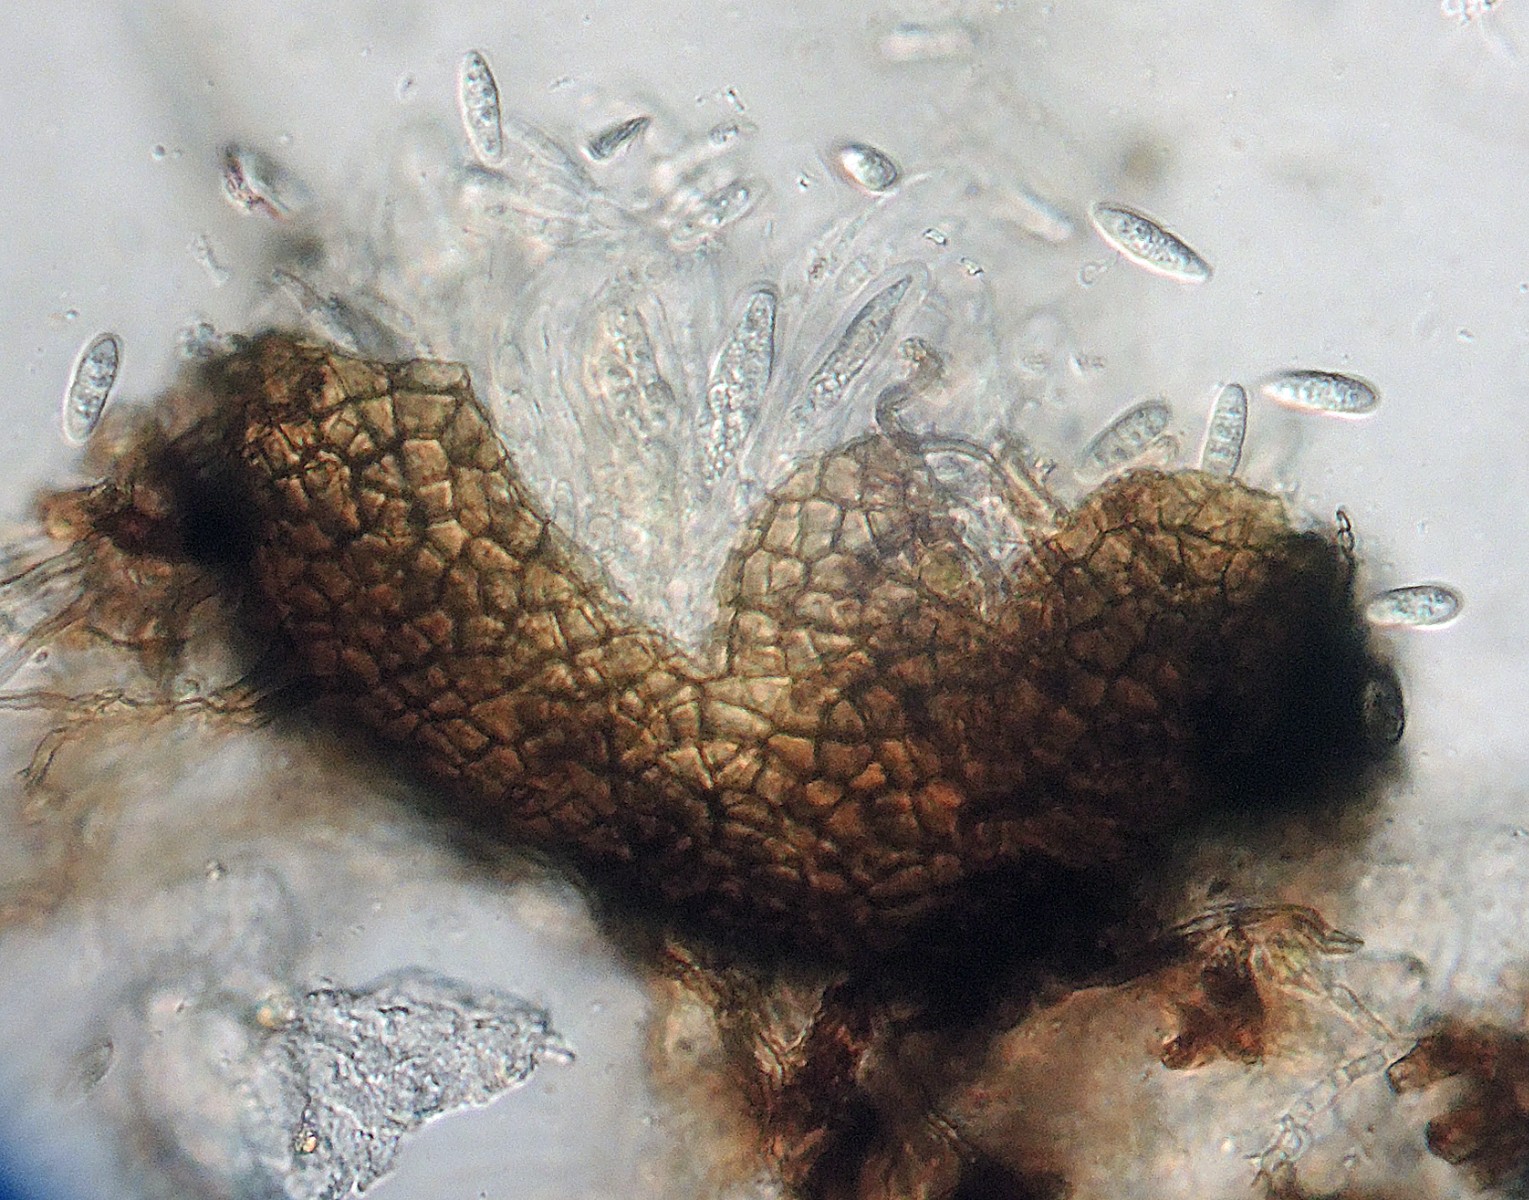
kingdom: Fungi
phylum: Ascomycota
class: Dothideomycetes
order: Tubeufiales
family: Tubeufiaceae
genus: Tubeufia
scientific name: Tubeufia parvula
